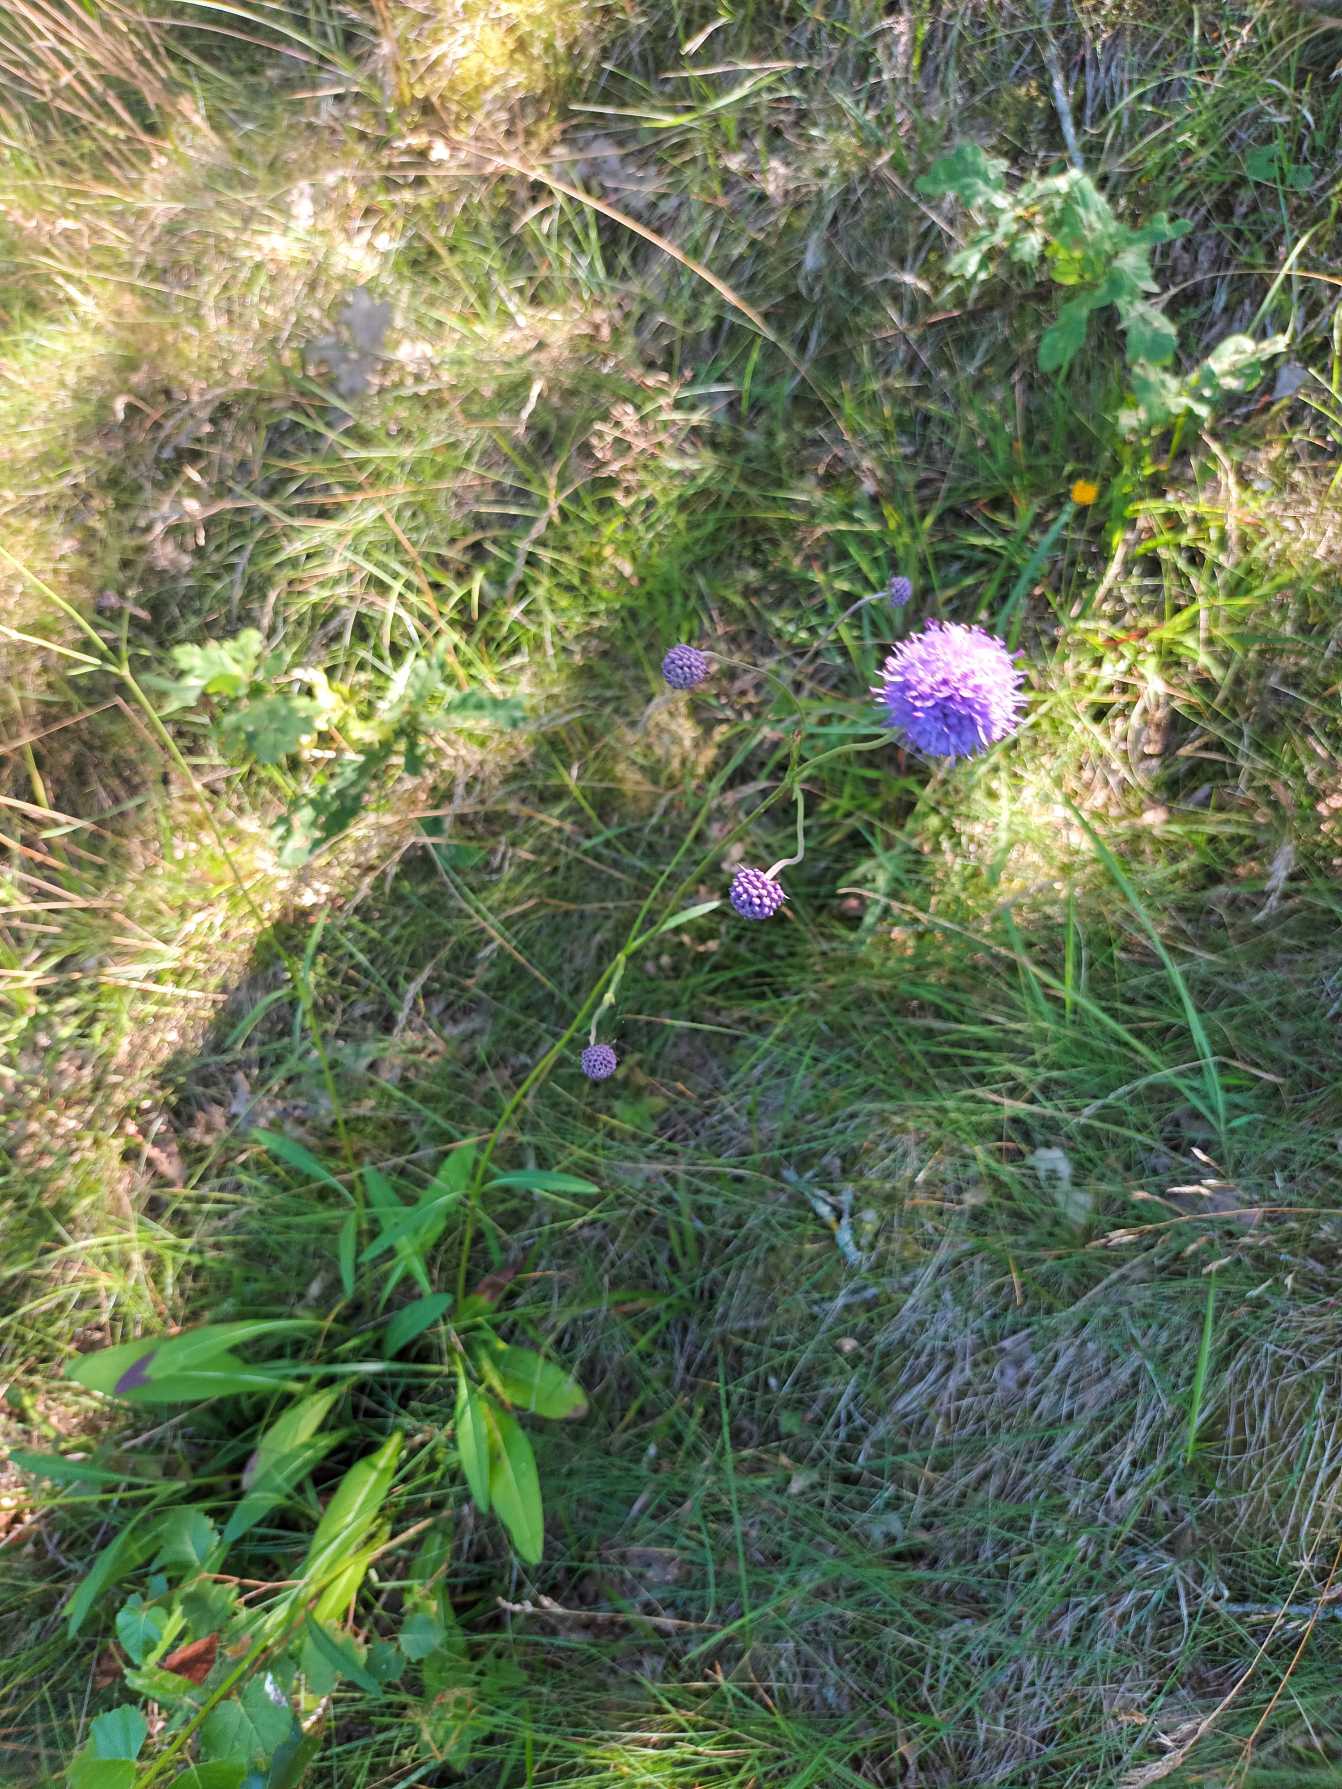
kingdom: Plantae
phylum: Tracheophyta
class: Magnoliopsida
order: Dipsacales
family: Caprifoliaceae
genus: Succisa
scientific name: Succisa pratensis
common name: Djævelsbid
